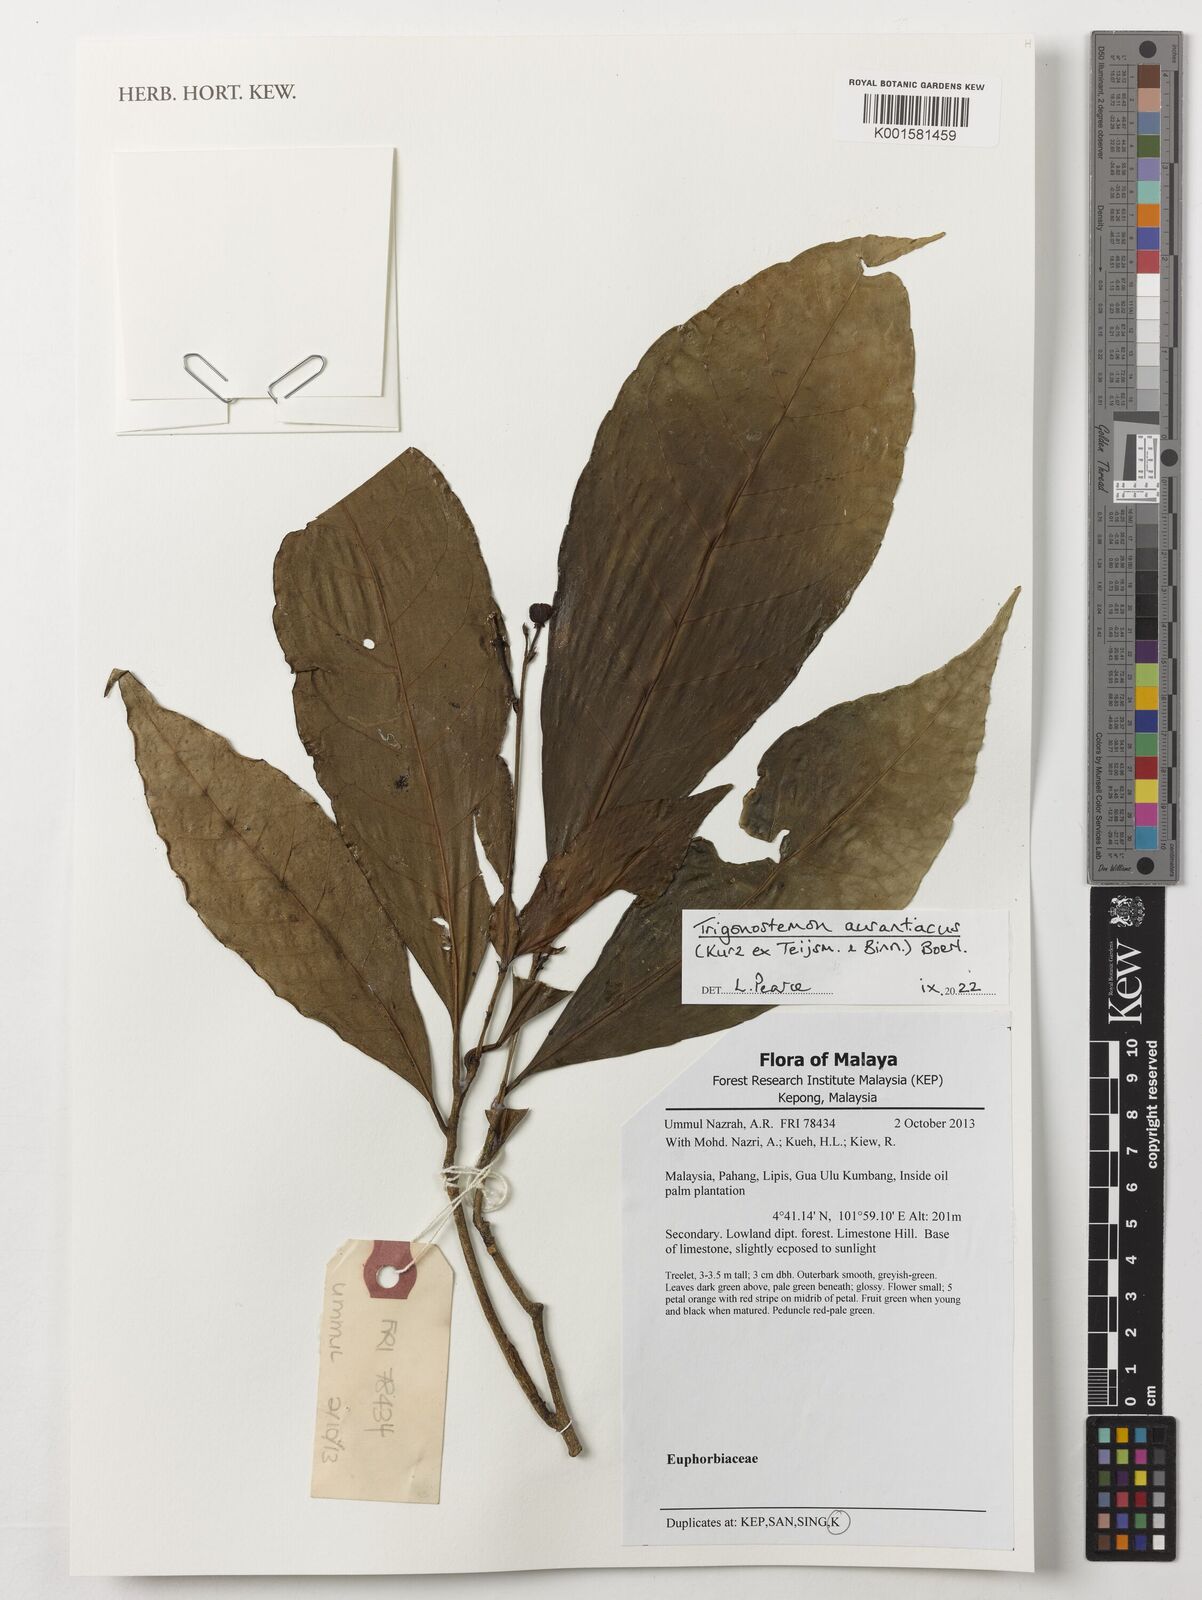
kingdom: Plantae
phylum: Tracheophyta
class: Magnoliopsida
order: Malpighiales
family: Euphorbiaceae
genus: Trigonostemon
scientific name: Trigonostemon aurantiacus
